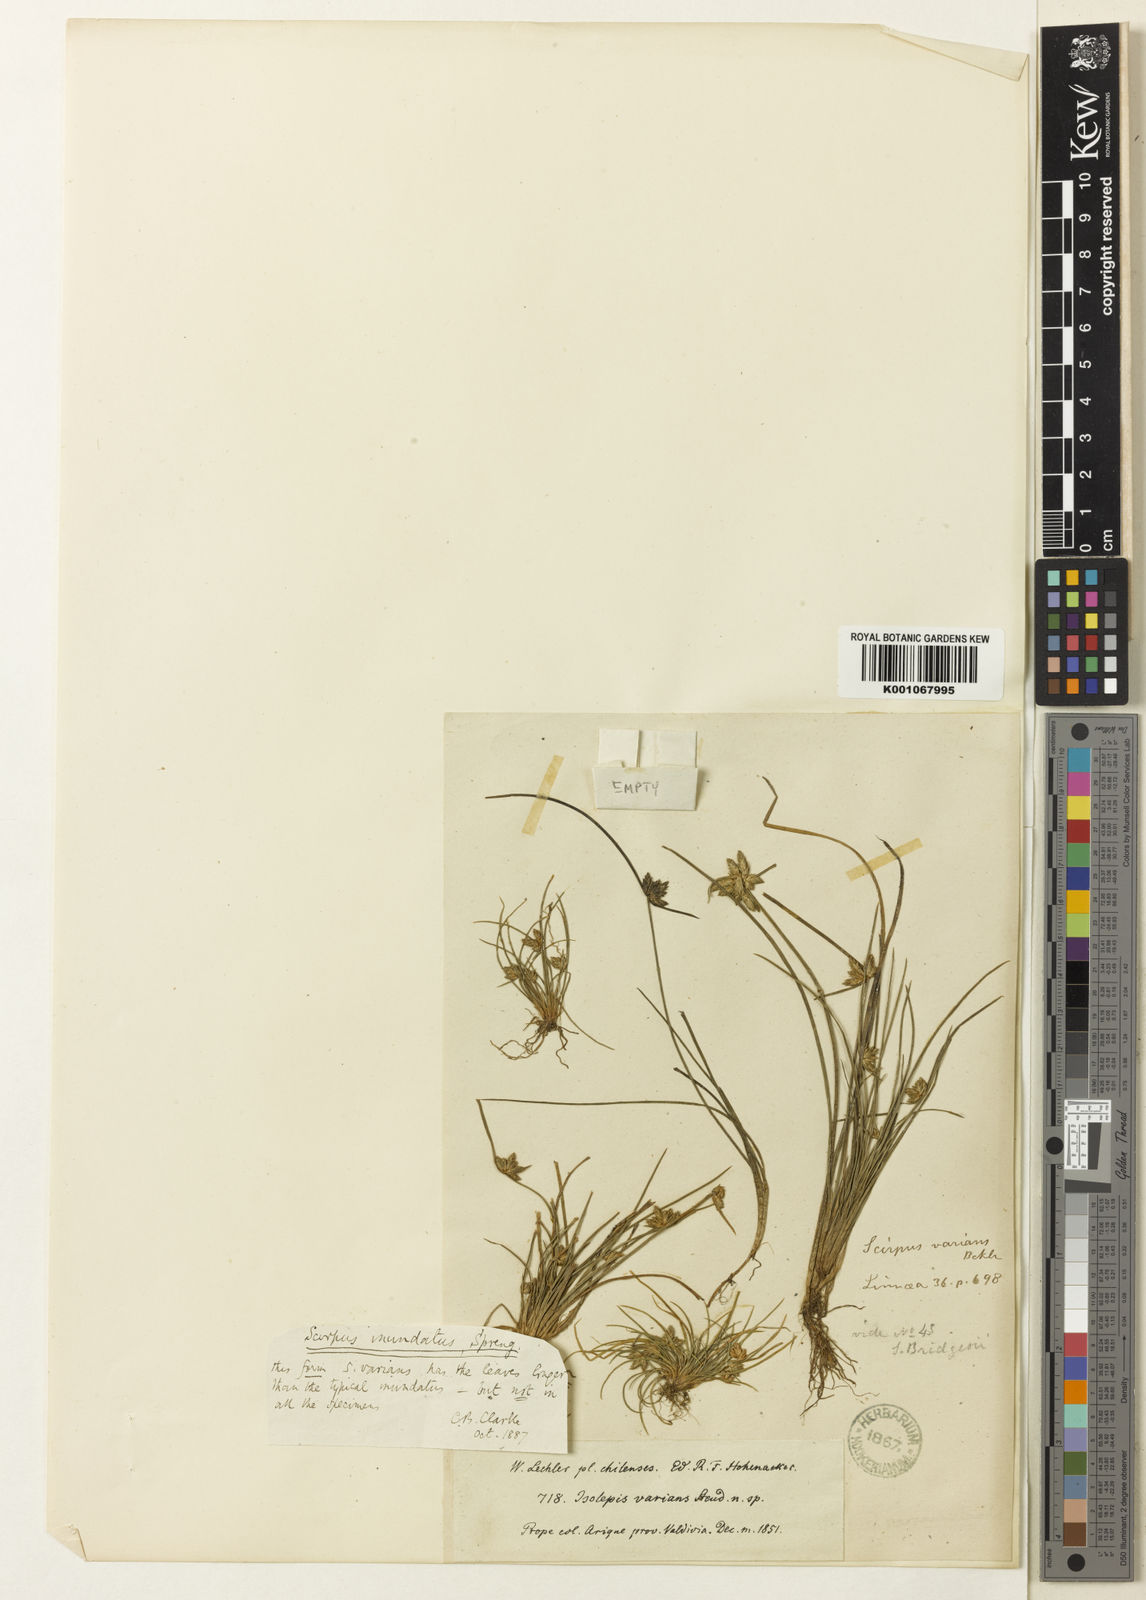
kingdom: Plantae
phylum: Tracheophyta
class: Liliopsida
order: Poales
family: Cyperaceae
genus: Isolepis
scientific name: Isolepis inundata
